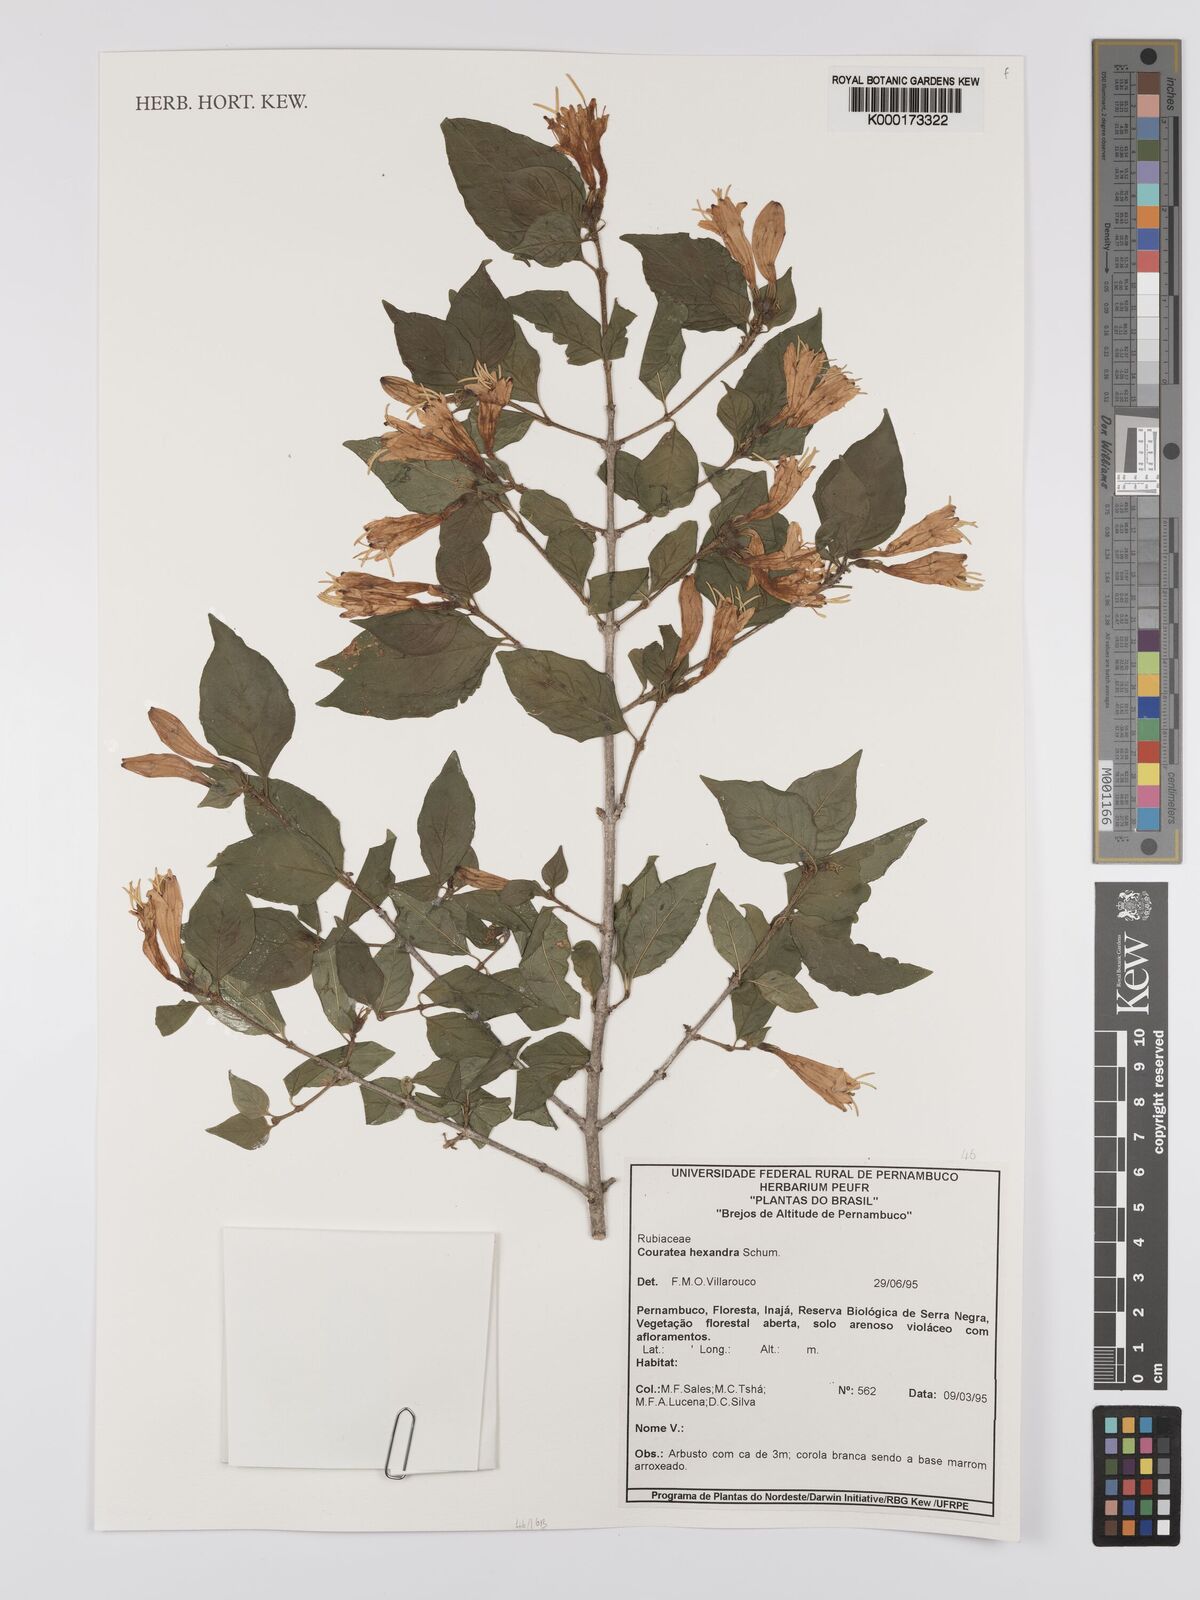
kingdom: Plantae
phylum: Tracheophyta
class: Magnoliopsida
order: Gentianales
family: Rubiaceae
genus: Coutarea
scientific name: Coutarea hexandra
